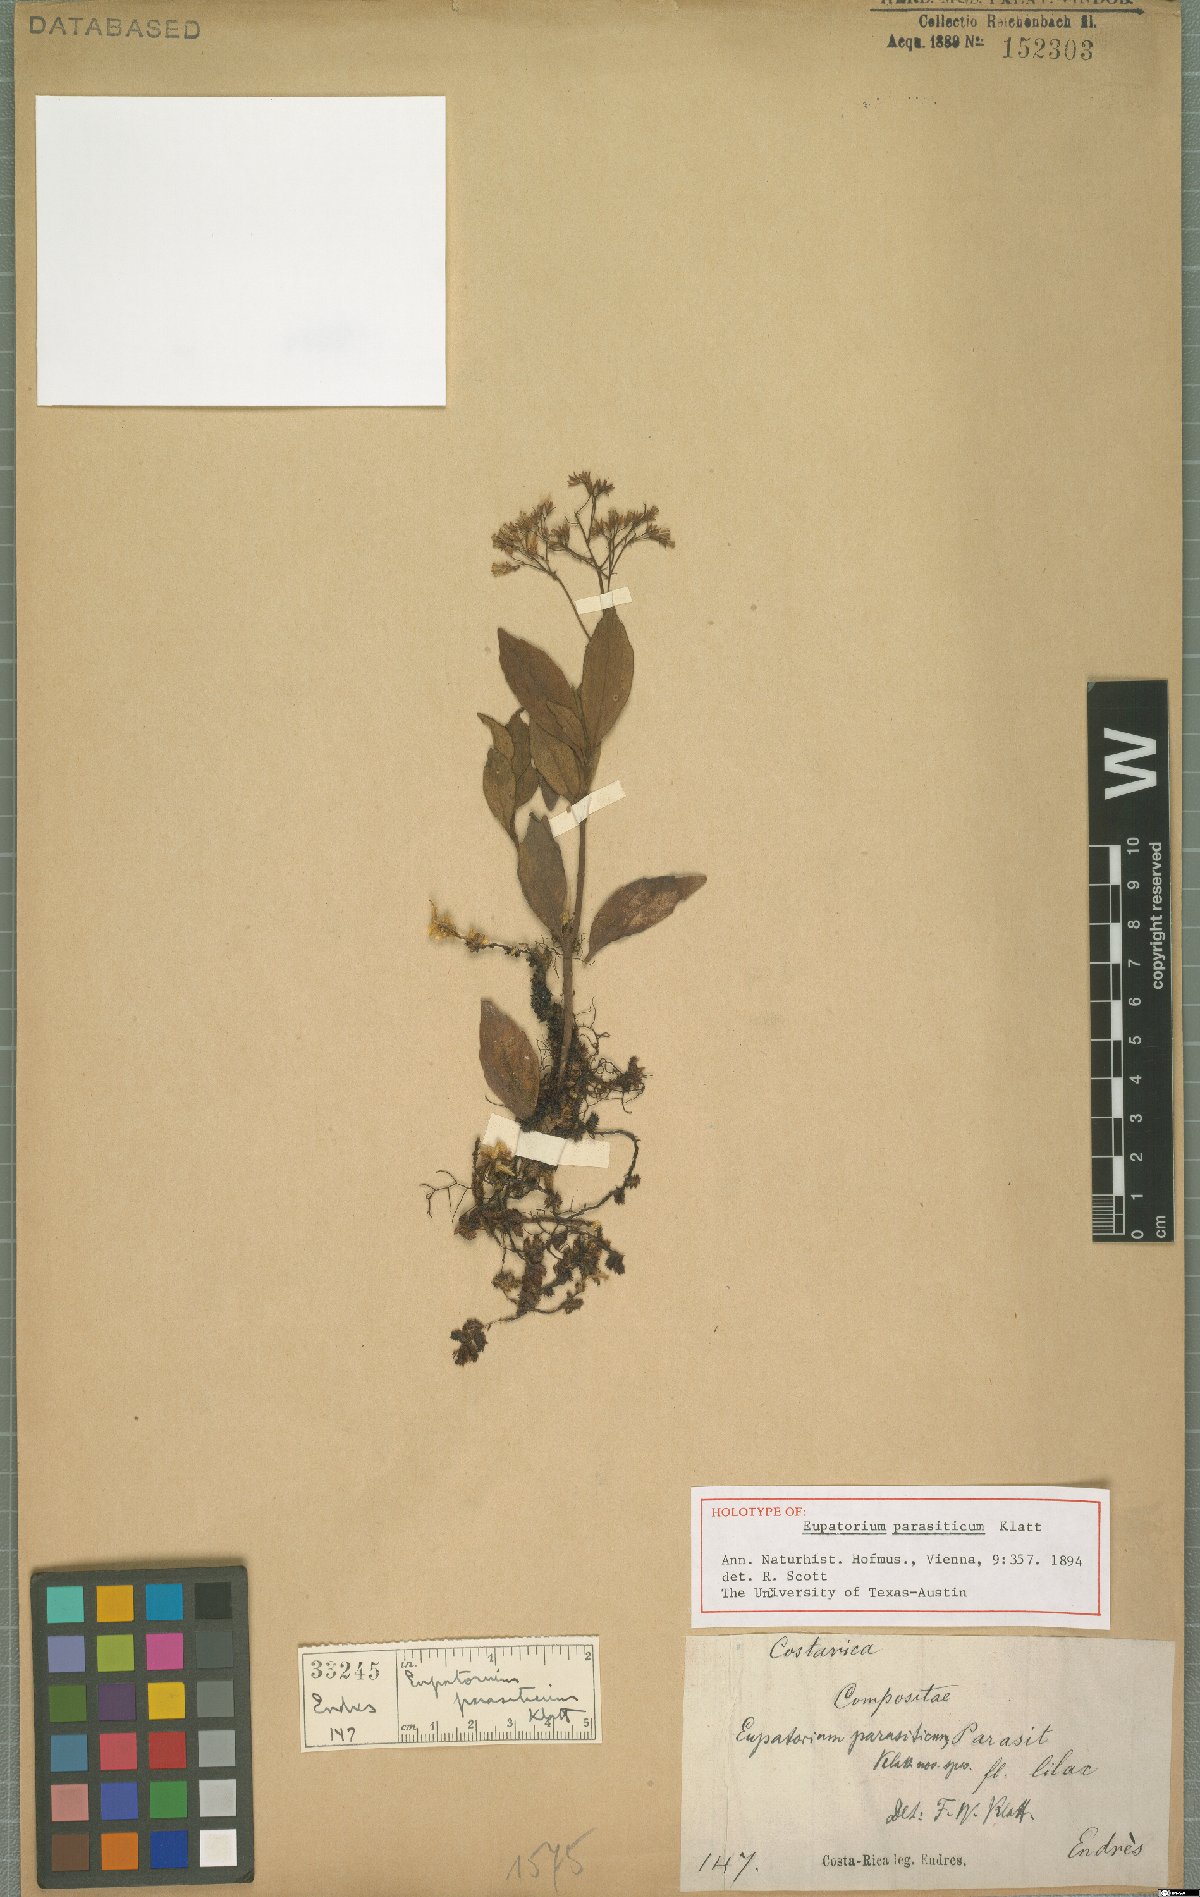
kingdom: Plantae
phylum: Tracheophyta
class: Magnoliopsida
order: Asterales
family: Asteraceae
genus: Neomirandea
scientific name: Neomirandea parasitica
